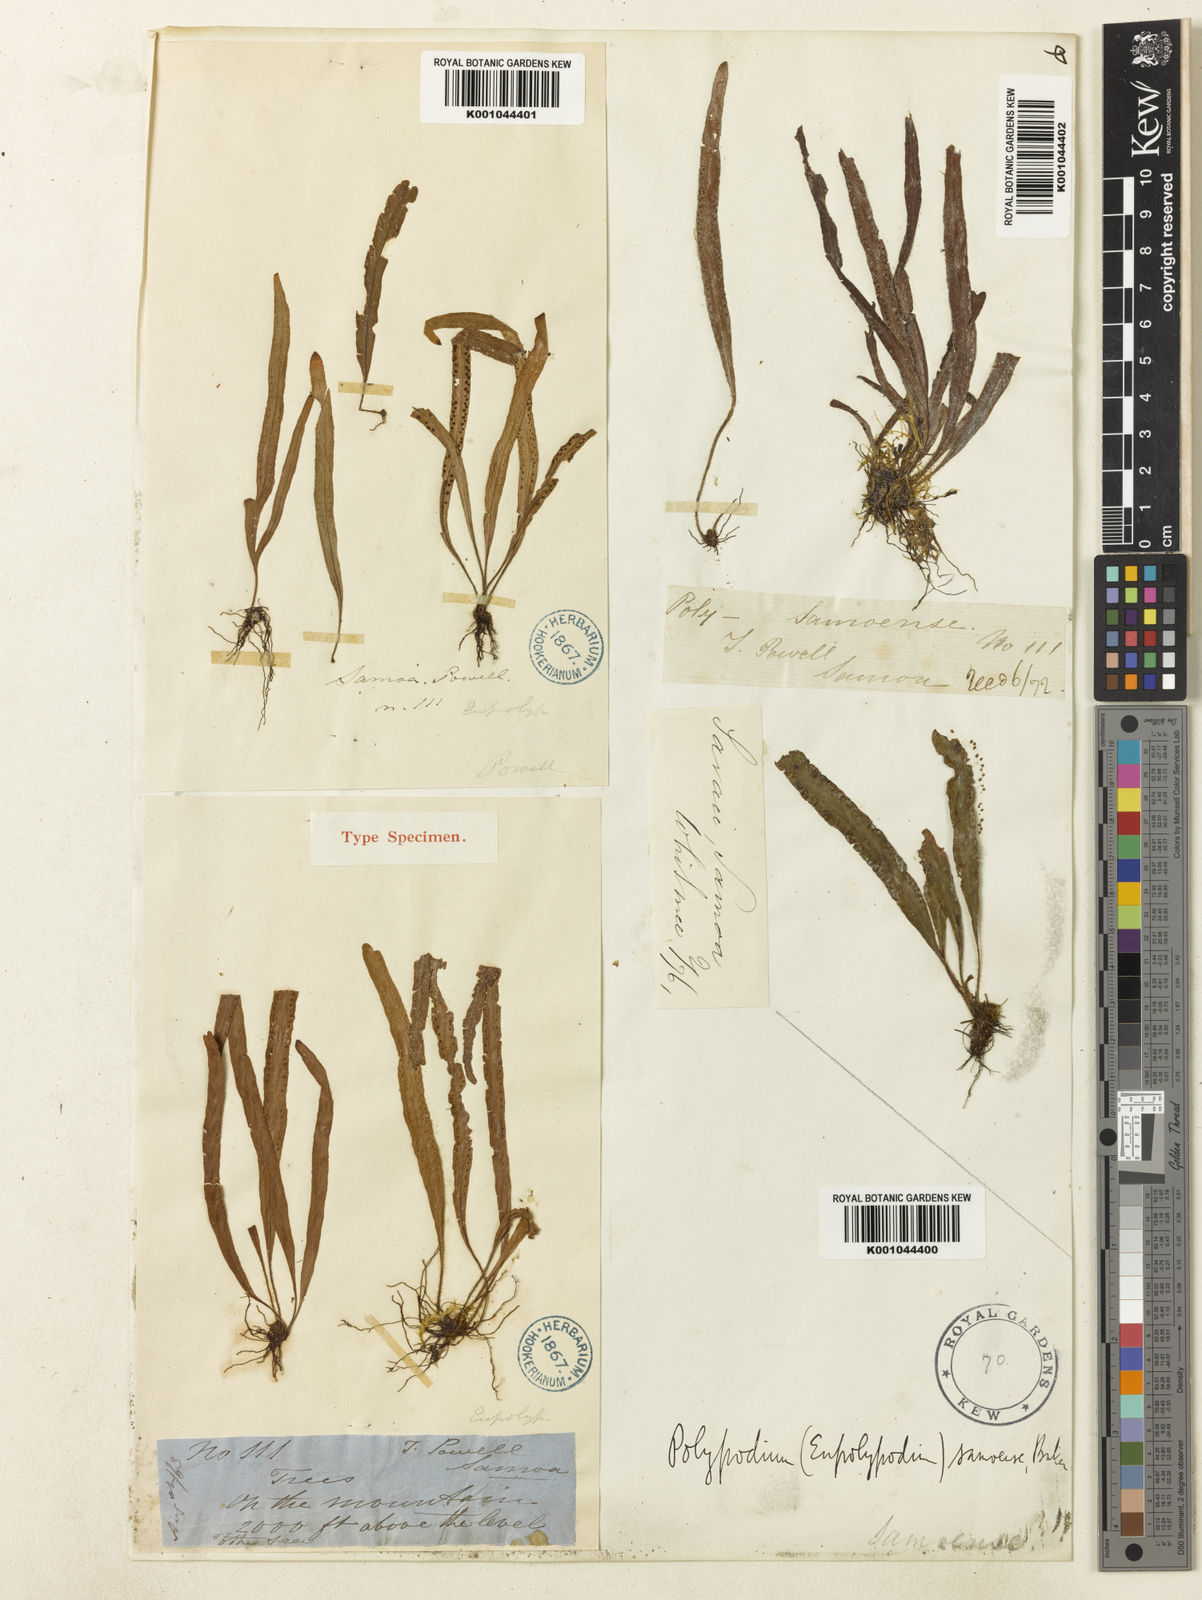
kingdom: Plantae
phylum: Tracheophyta
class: Polypodiopsida
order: Polypodiales
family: Polypodiaceae
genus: Archigrammitis
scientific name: Archigrammitis samoensis
